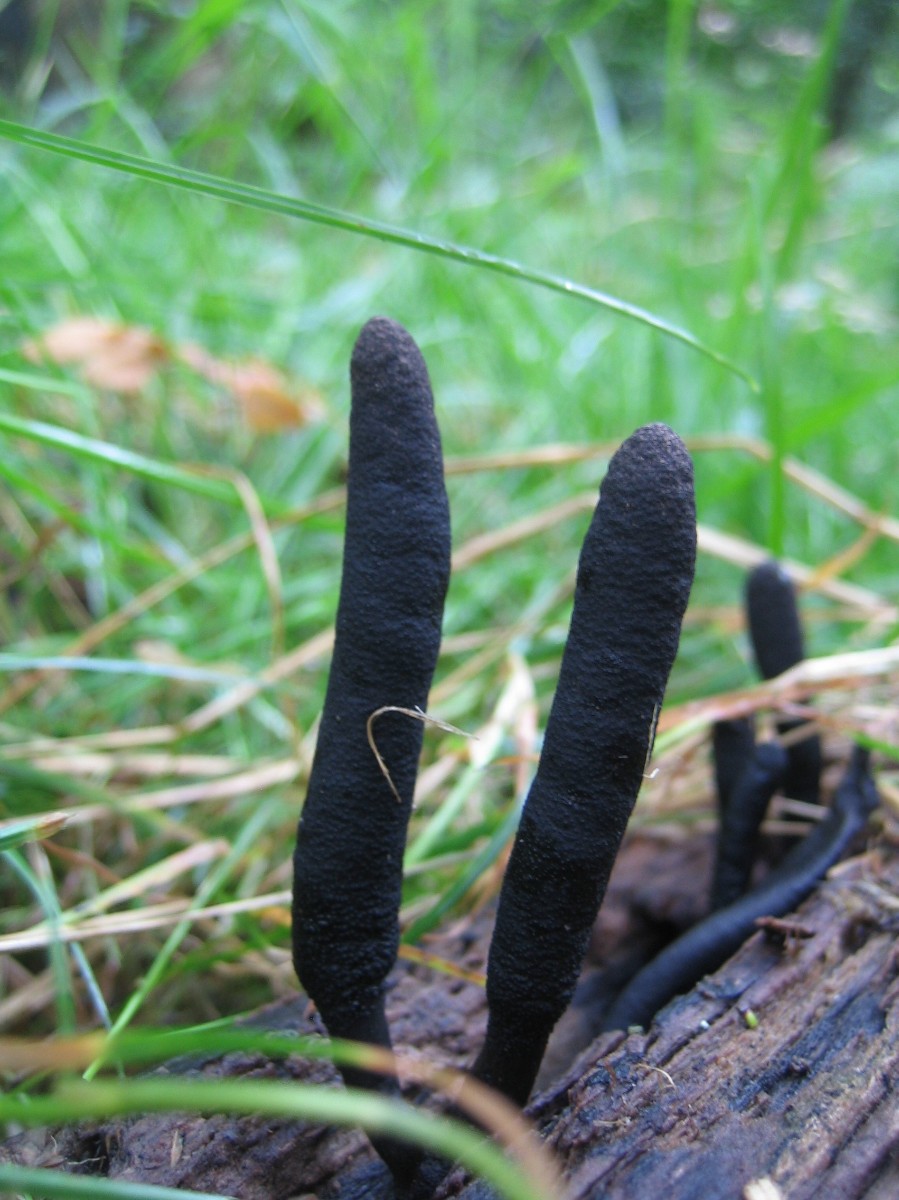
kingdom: Fungi
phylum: Ascomycota
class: Sordariomycetes
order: Xylariales
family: Xylariaceae
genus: Xylaria
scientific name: Xylaria longipes
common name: slank stødsvamp
